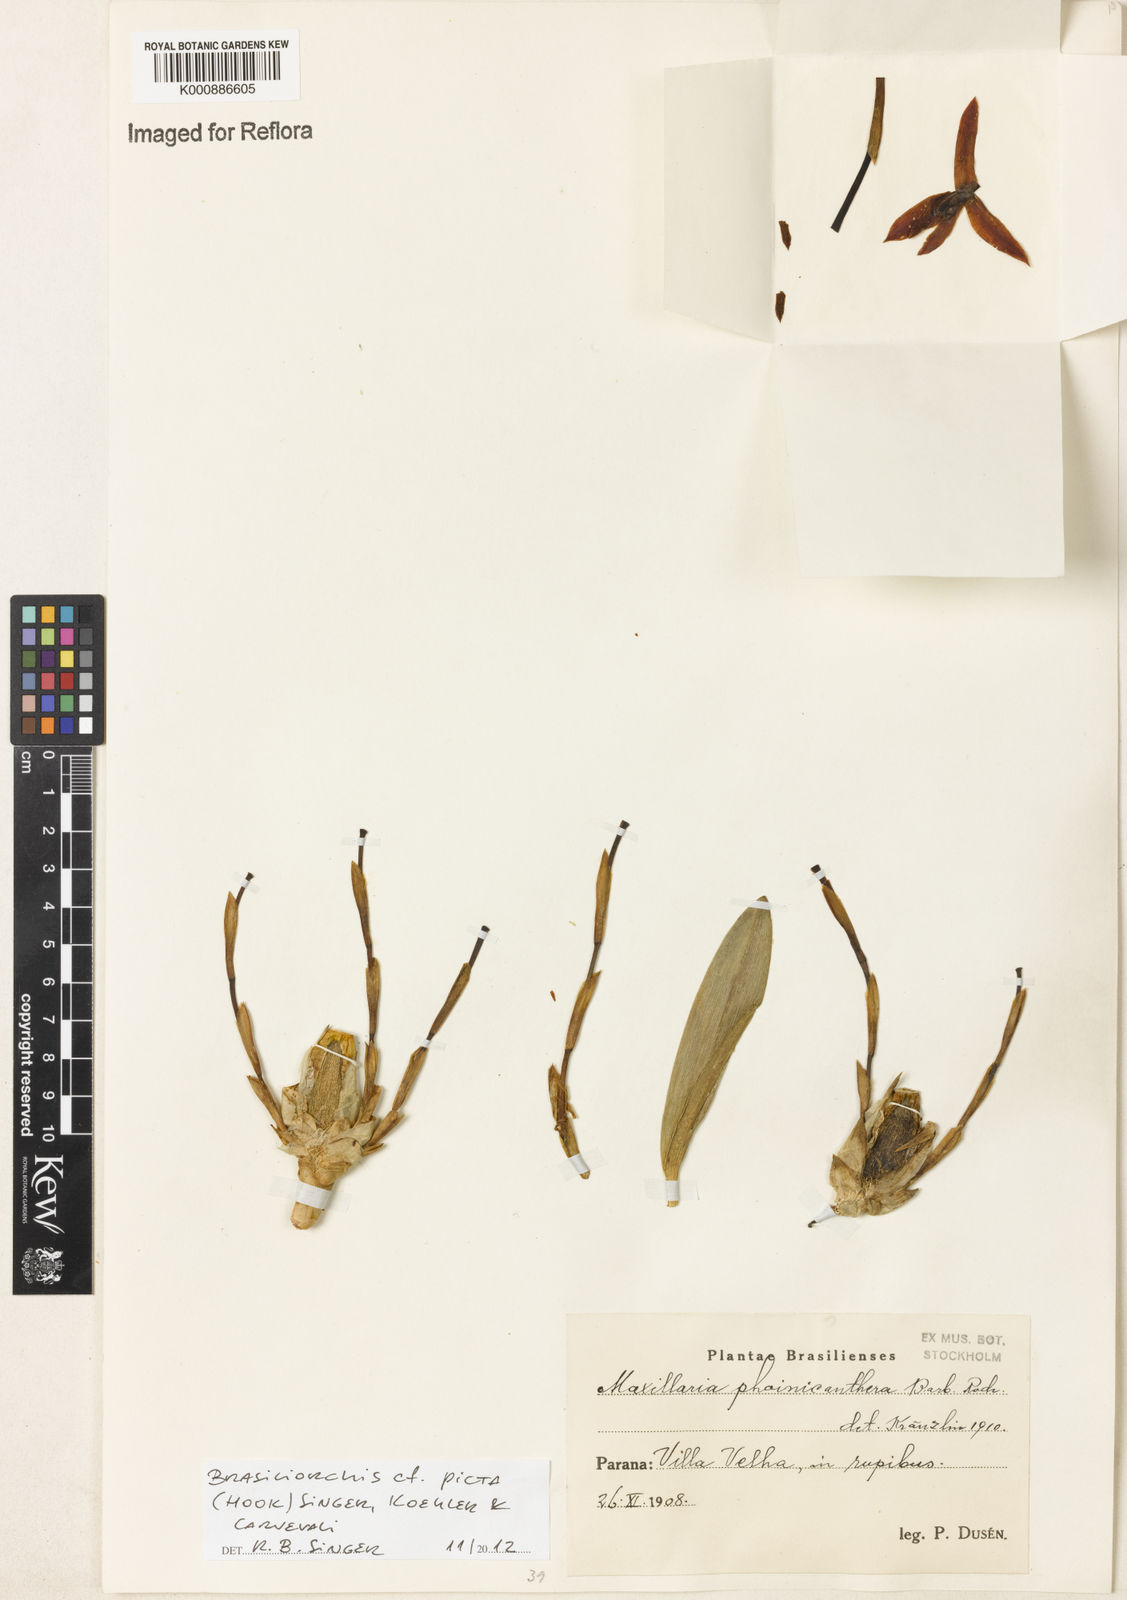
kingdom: Plantae
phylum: Tracheophyta
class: Liliopsida
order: Asparagales
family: Orchidaceae
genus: Maxillaria
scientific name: Maxillaria phoenicanthera
